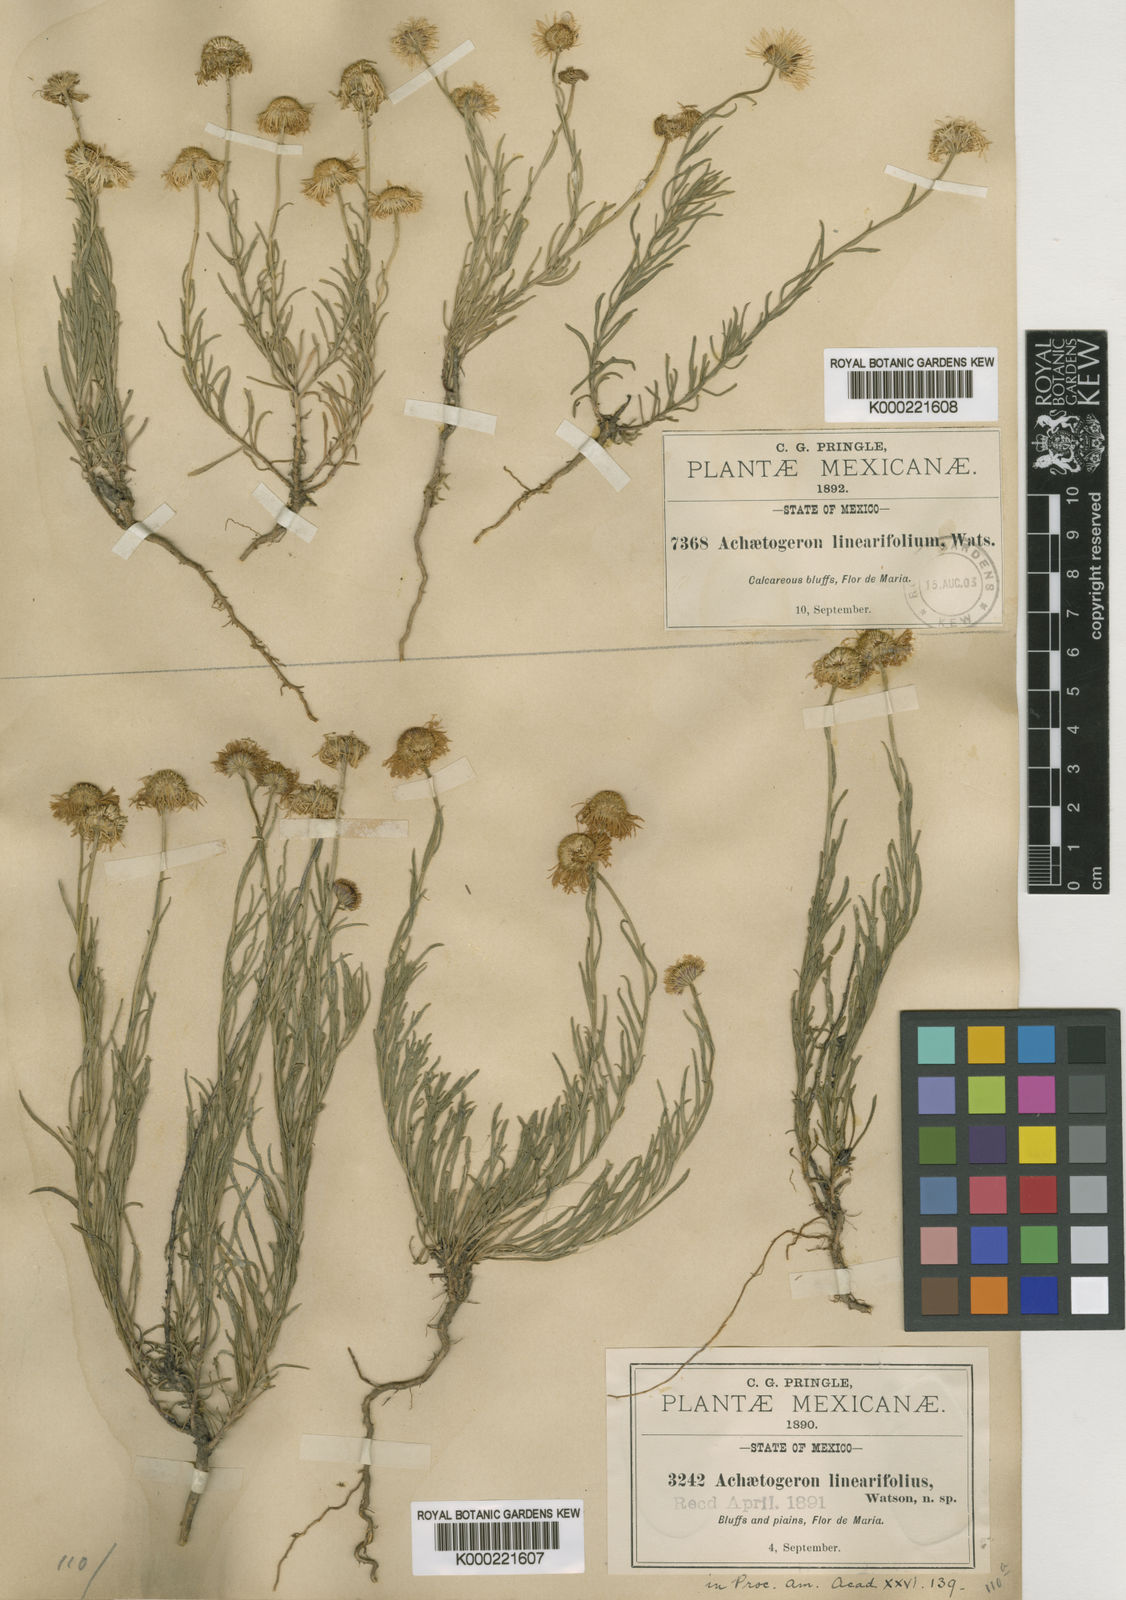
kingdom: Plantae
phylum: Tracheophyta
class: Magnoliopsida
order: Asterales
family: Asteraceae
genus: Erigeron
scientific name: Erigeron janivultus
